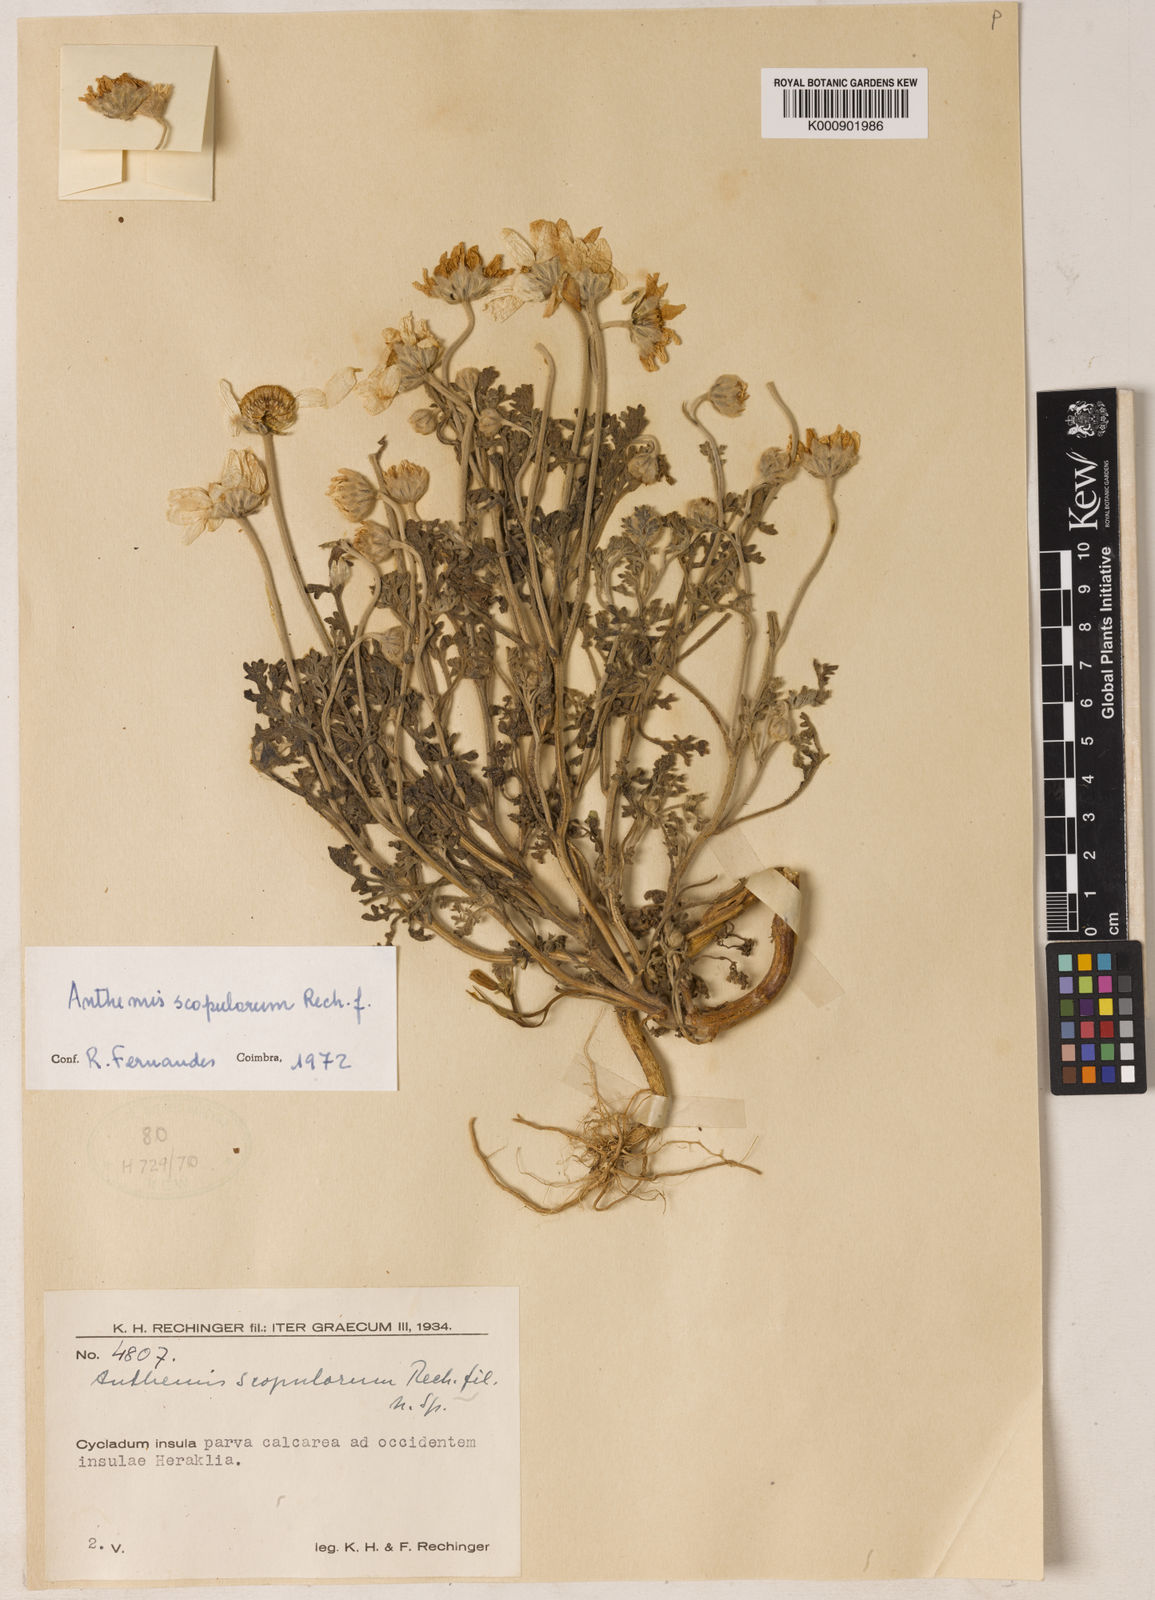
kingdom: Plantae
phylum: Tracheophyta
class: Magnoliopsida
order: Asterales
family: Asteraceae
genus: Anthemis
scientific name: Anthemis scopulorum
